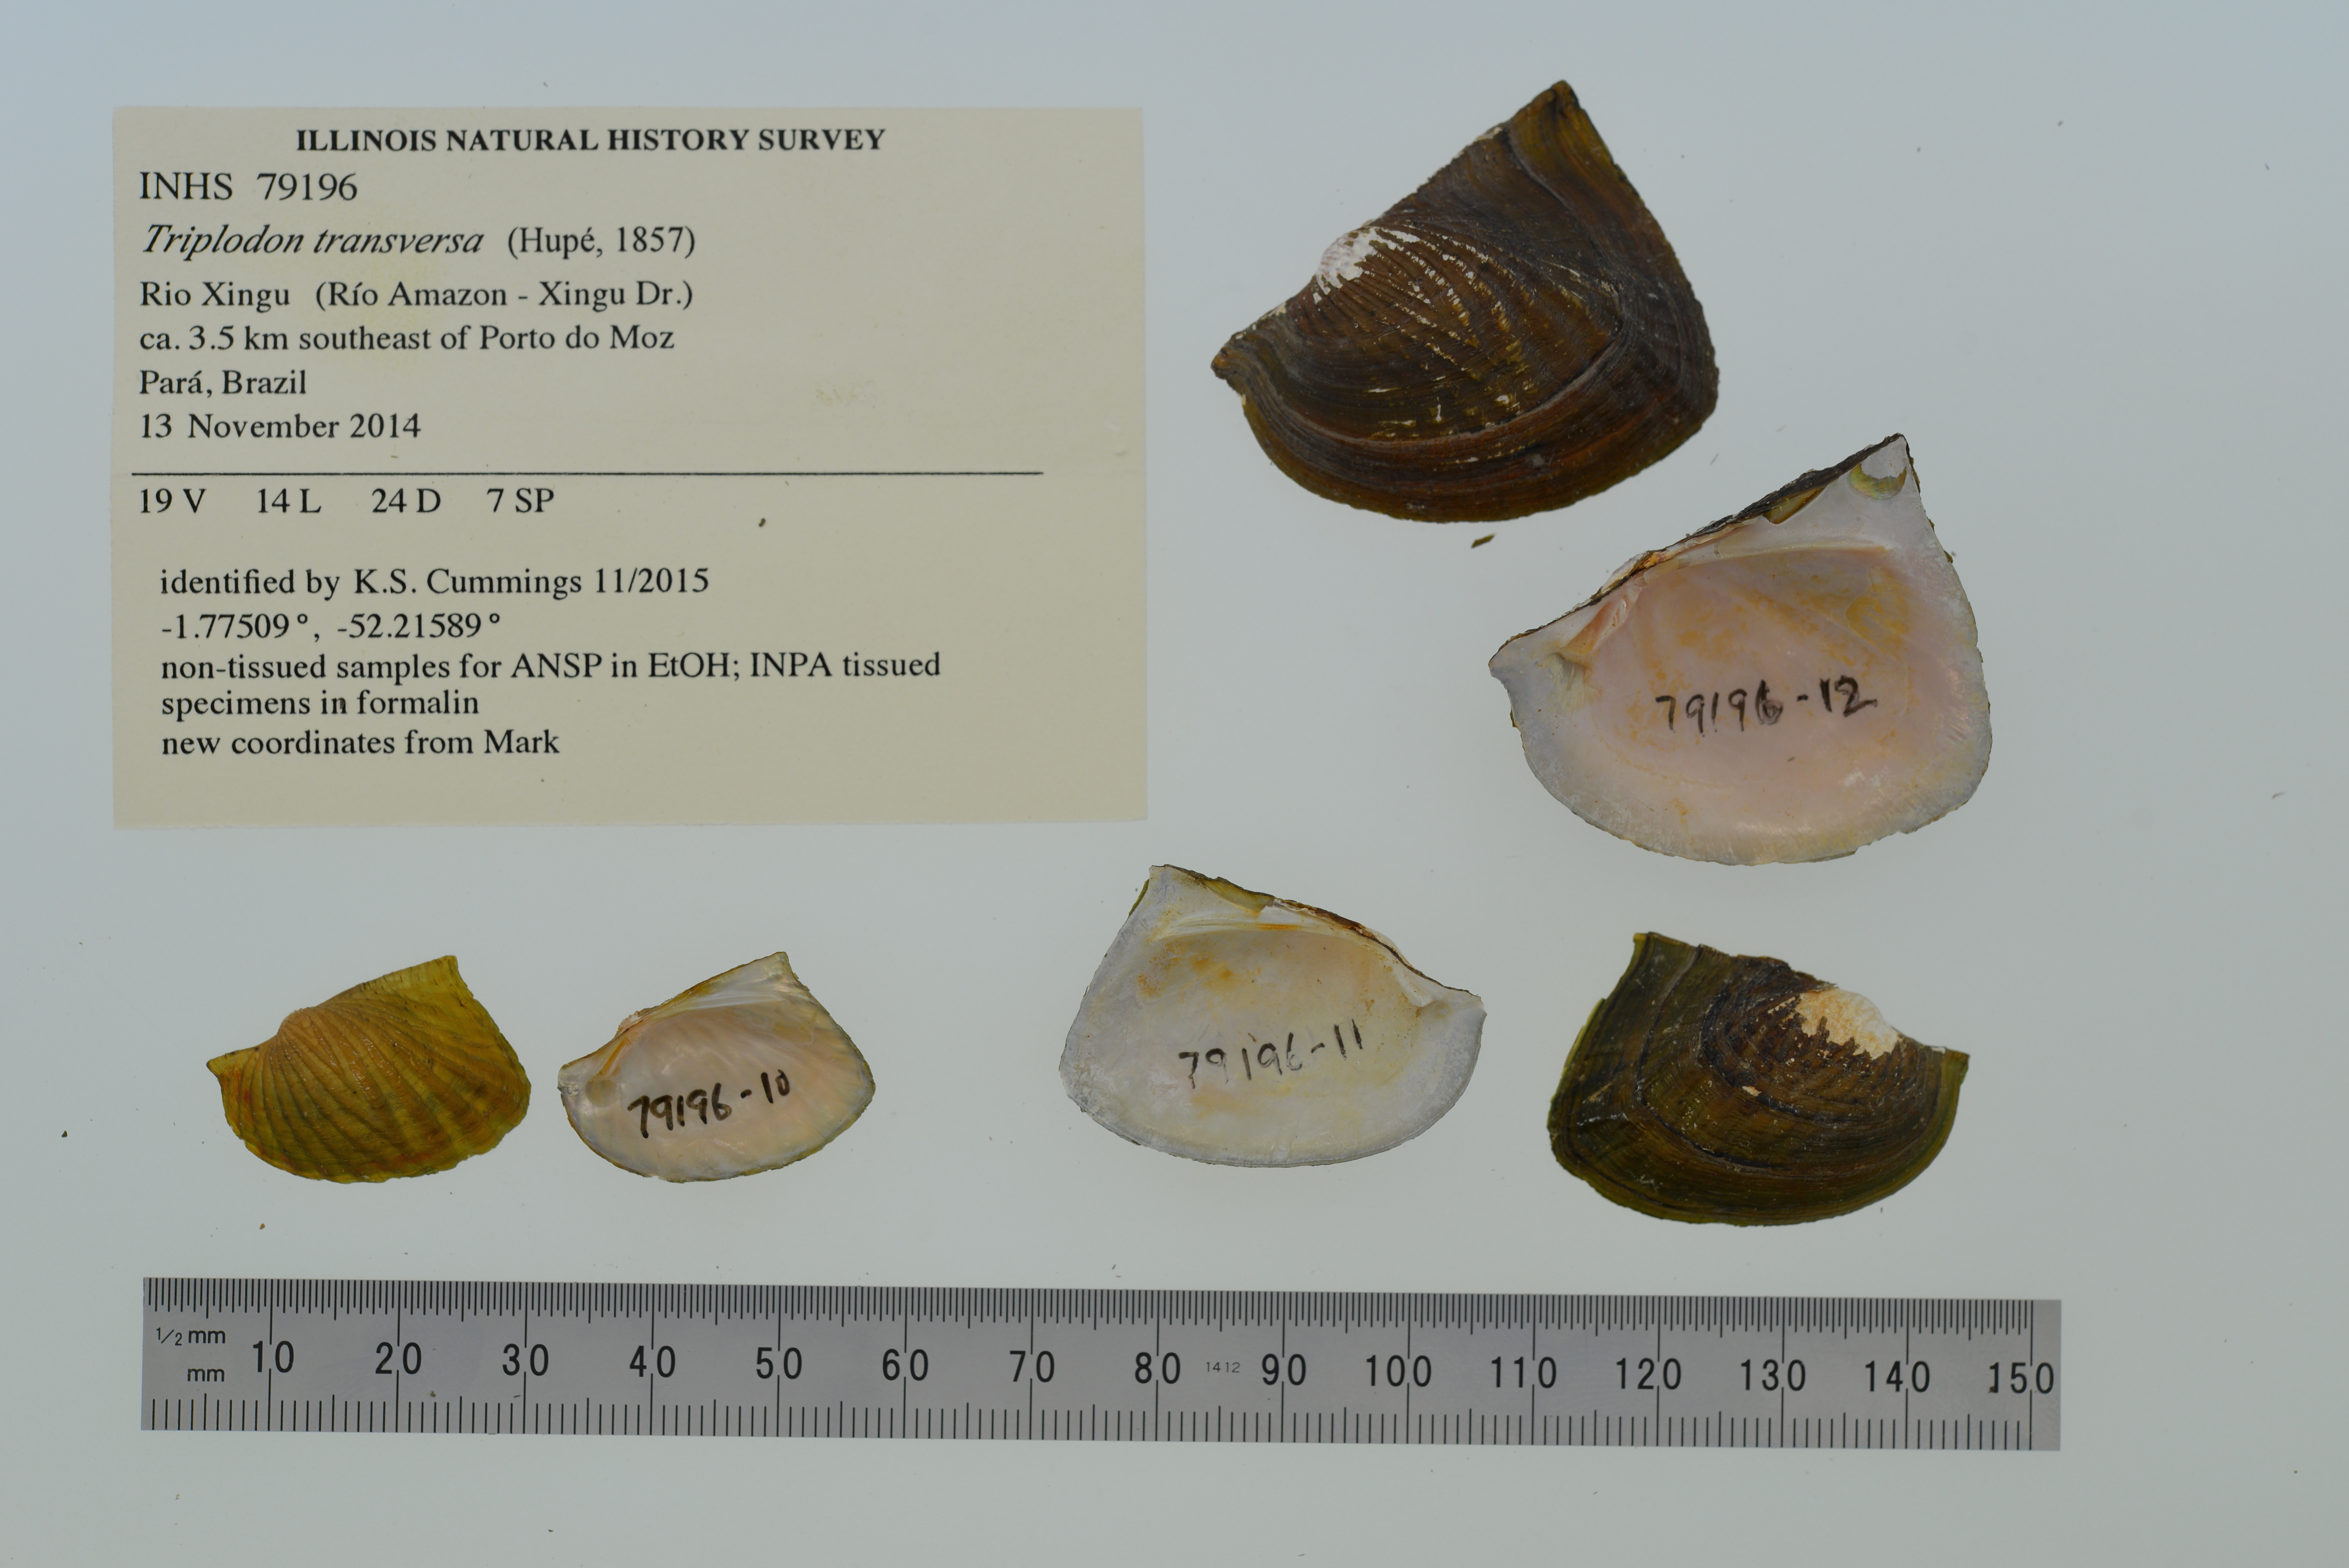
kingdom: Animalia
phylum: Mollusca
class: Bivalvia
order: Unionida
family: Hyriidae
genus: Triplodon
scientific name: Triplodon
